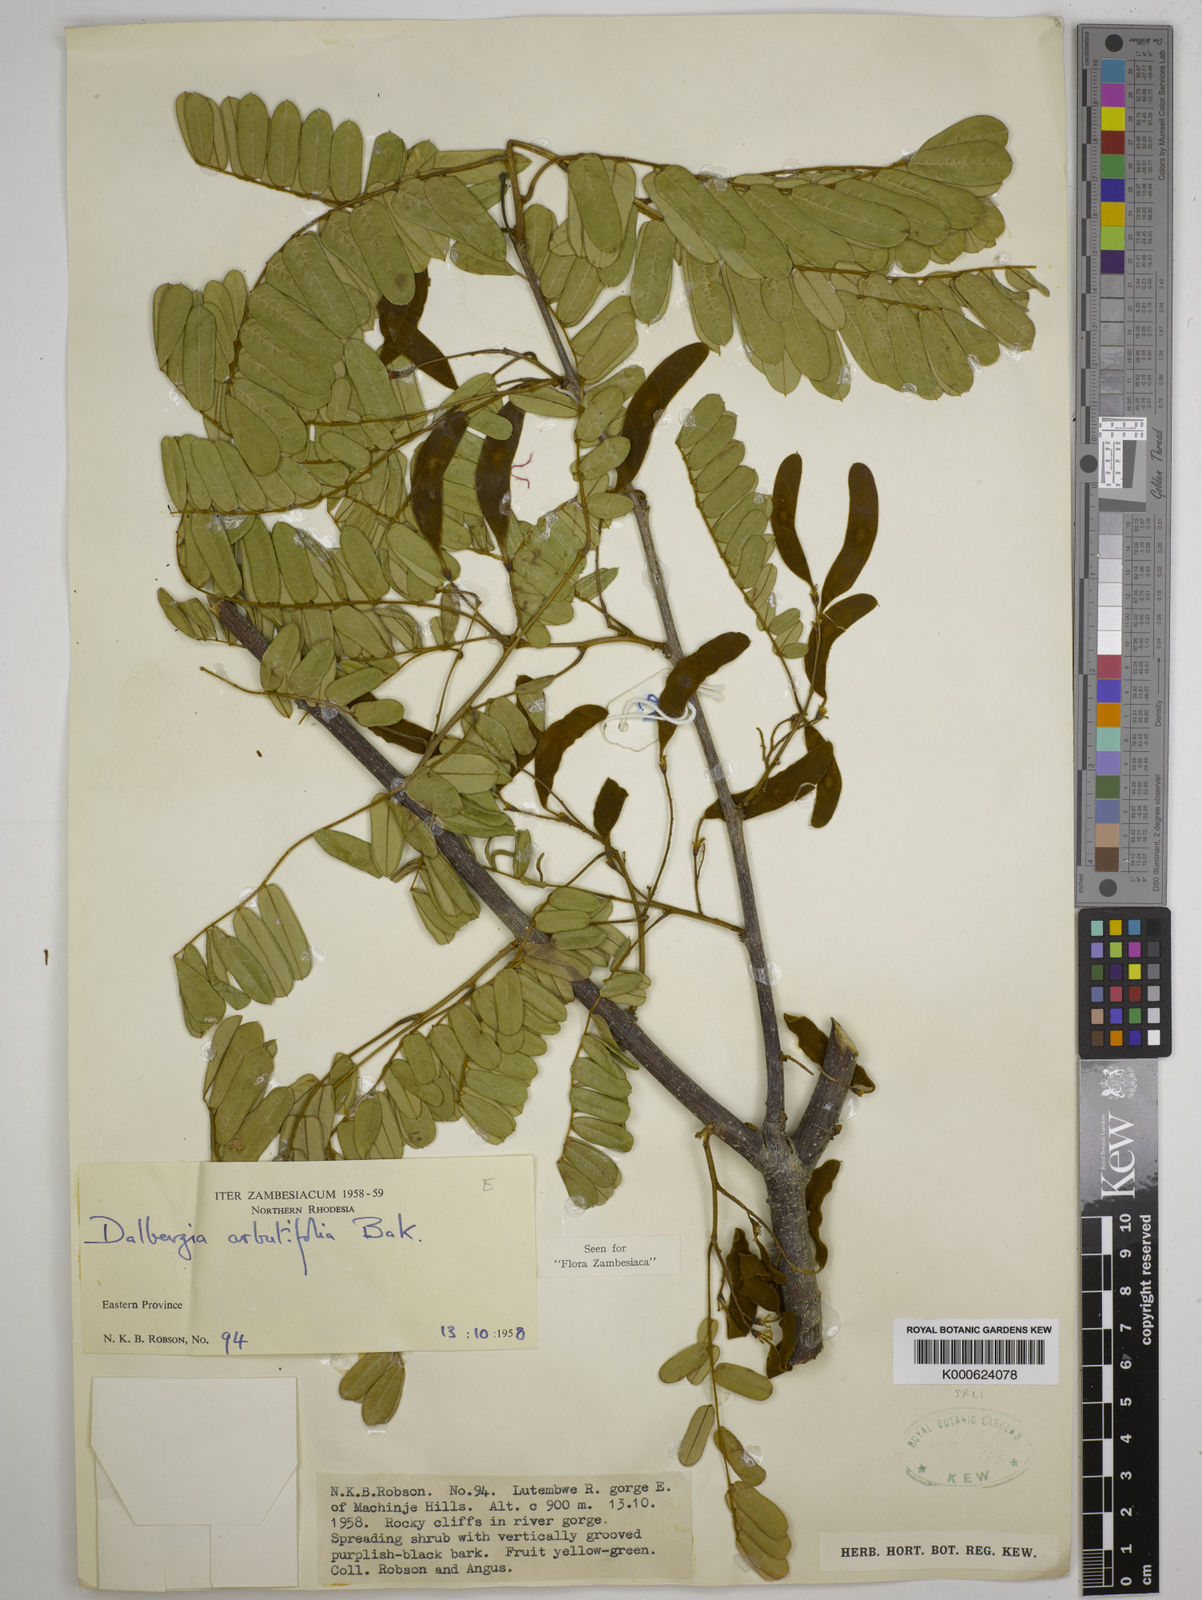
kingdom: Plantae
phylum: Tracheophyta
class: Magnoliopsida
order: Fabales
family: Fabaceae
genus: Dalbergia
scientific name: Dalbergia arbutifolia
